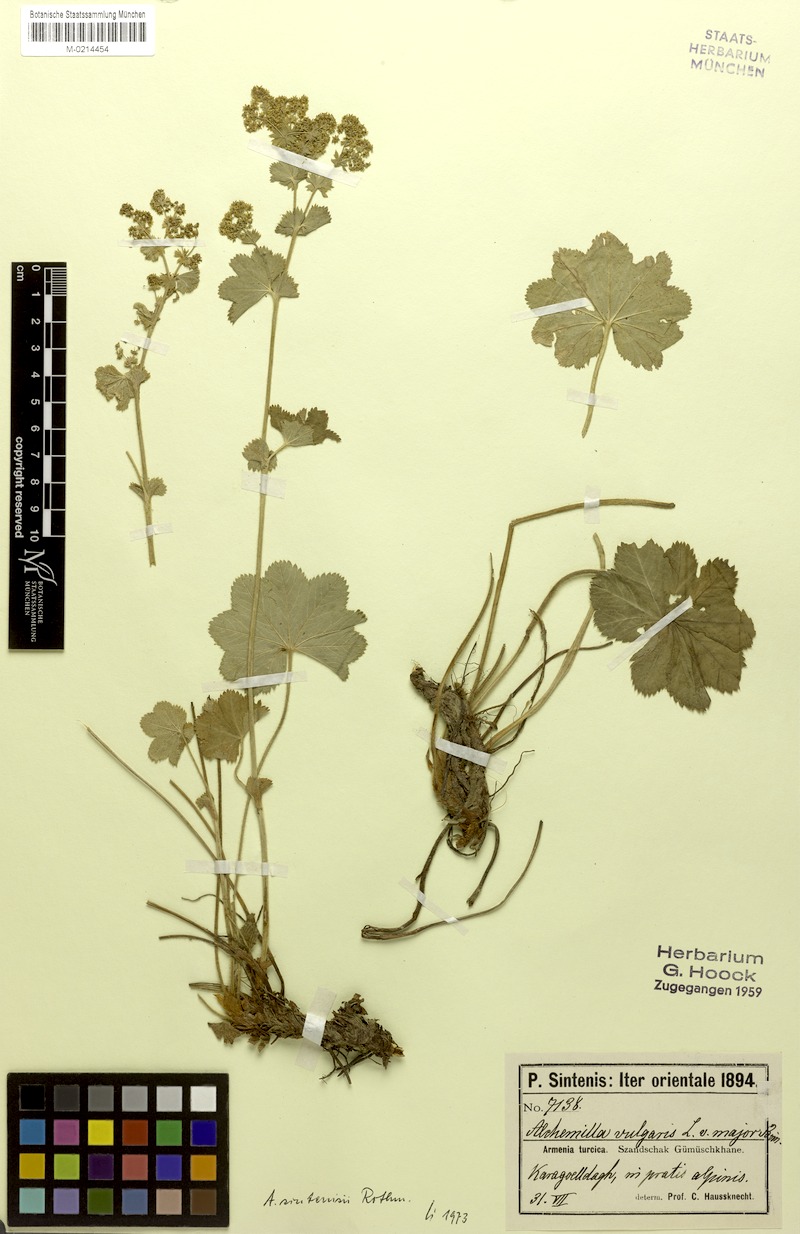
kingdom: Plantae
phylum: Tracheophyta
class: Magnoliopsida
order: Rosales
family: Rosaceae
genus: Alchemilla
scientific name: Alchemilla sintenisii
